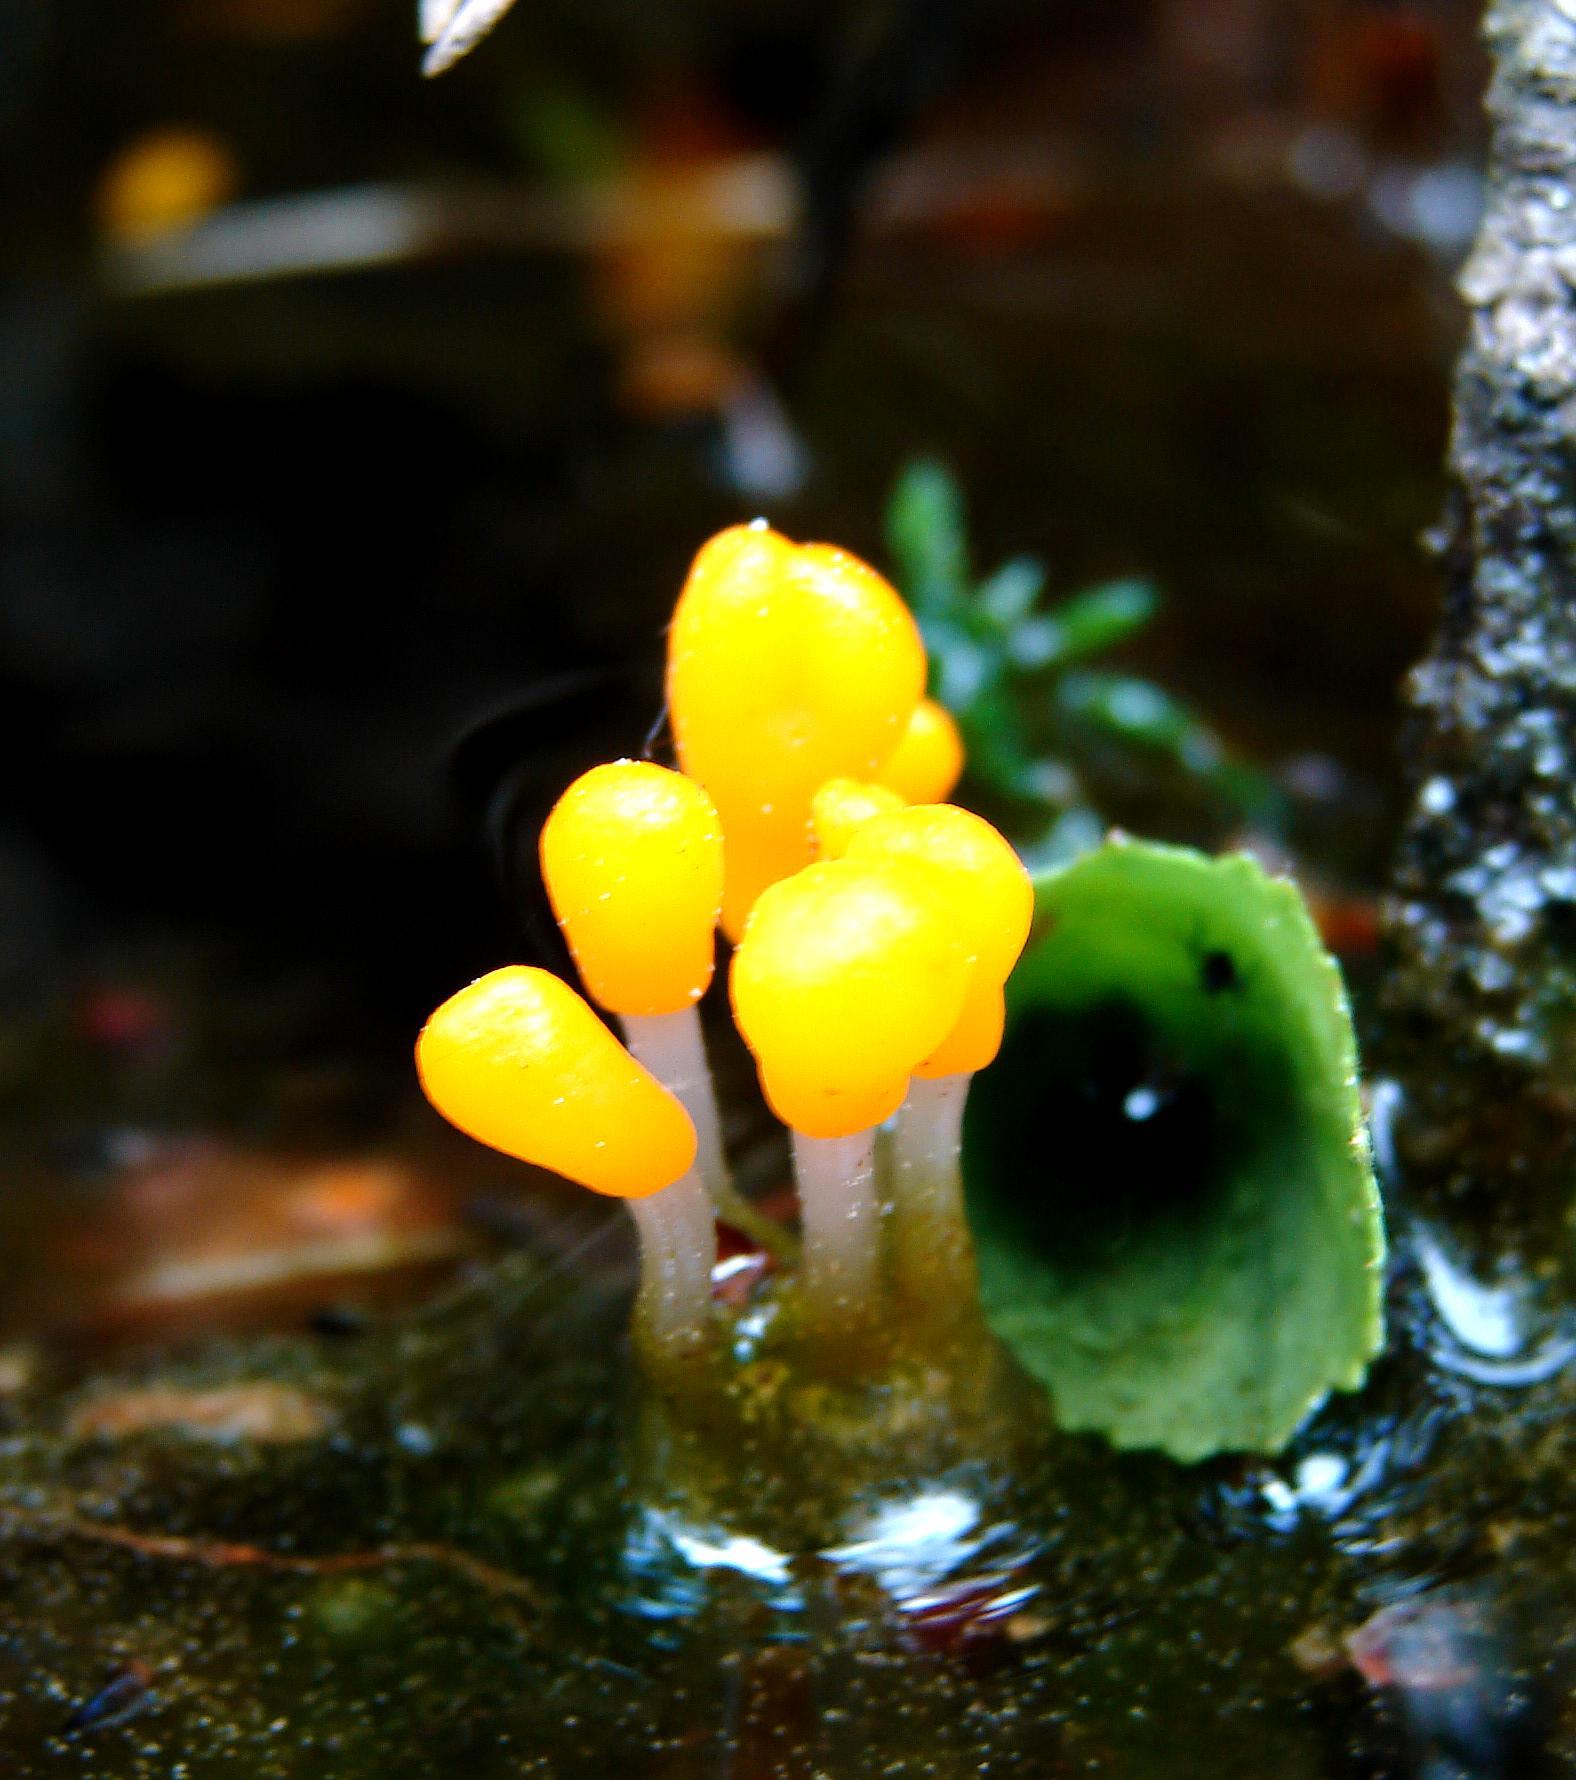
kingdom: Fungi
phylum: Ascomycota
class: Leotiomycetes
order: Helotiales
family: Cenangiaceae
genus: Mitrula
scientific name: Mitrula paludosa
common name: gul nøkketunge
